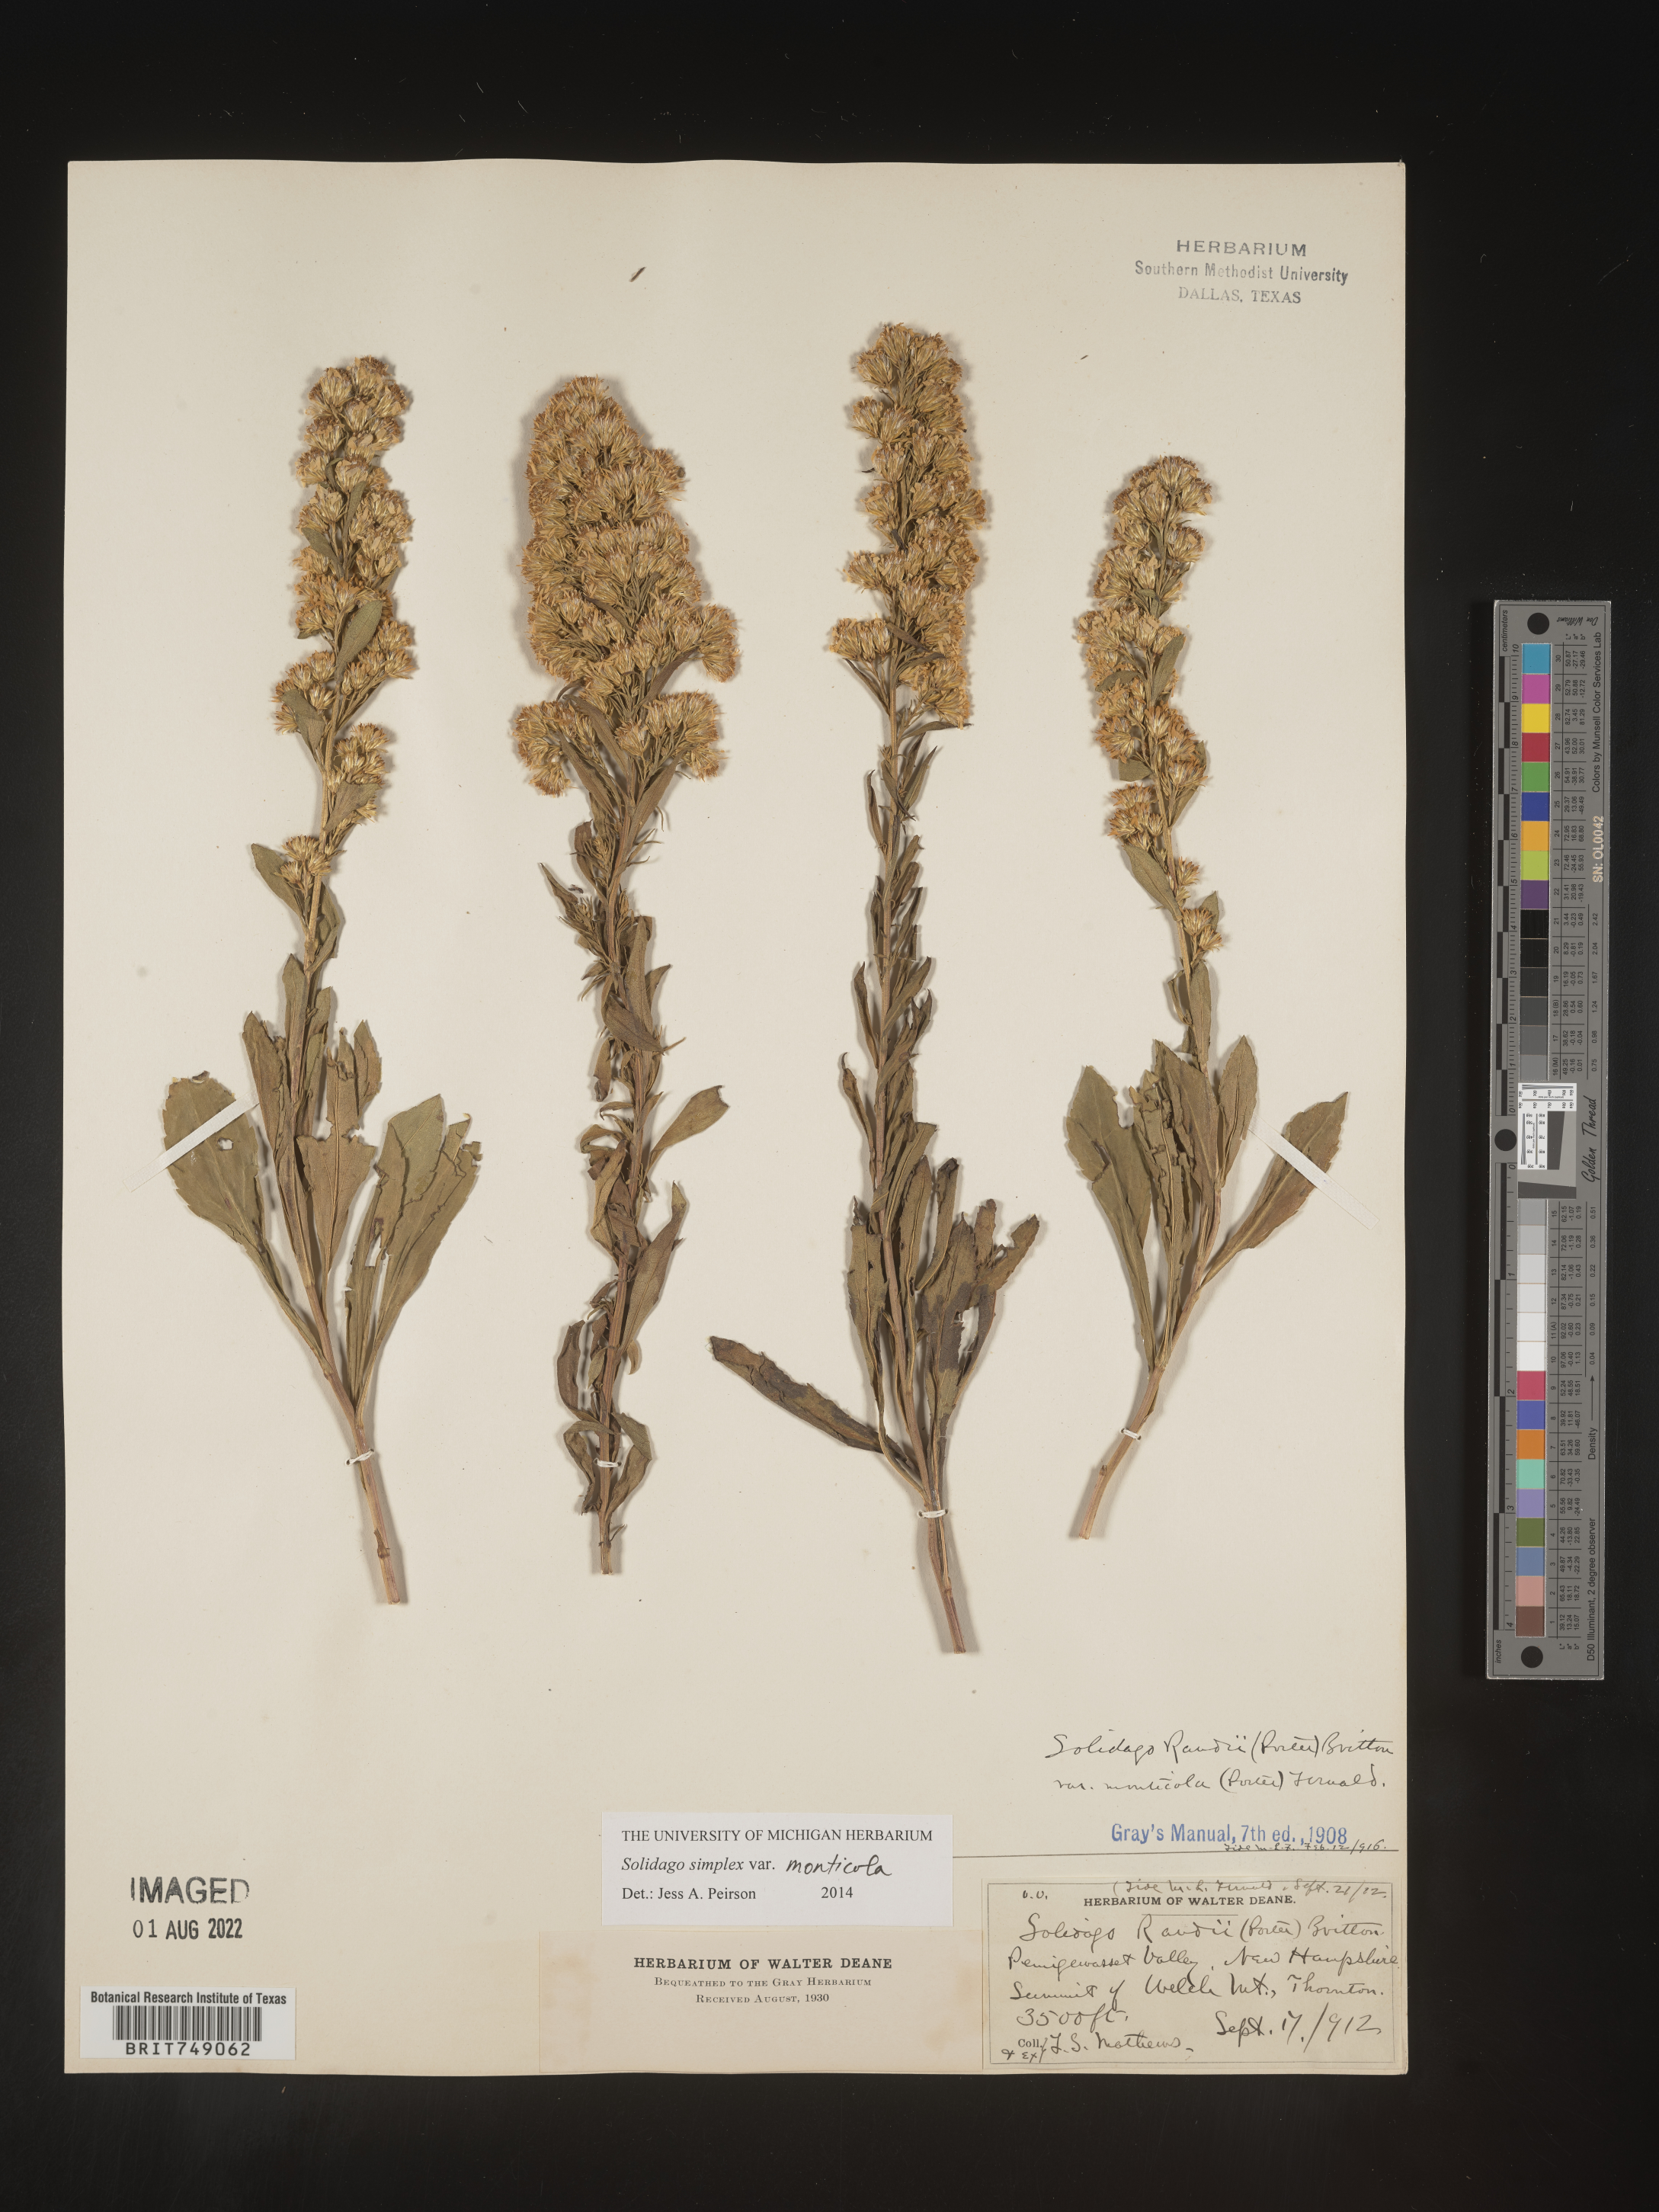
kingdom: Plantae
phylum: Tracheophyta
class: Magnoliopsida
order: Asterales
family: Asteraceae
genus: Solidago
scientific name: Solidago simplex
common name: Sticky goldenrod
